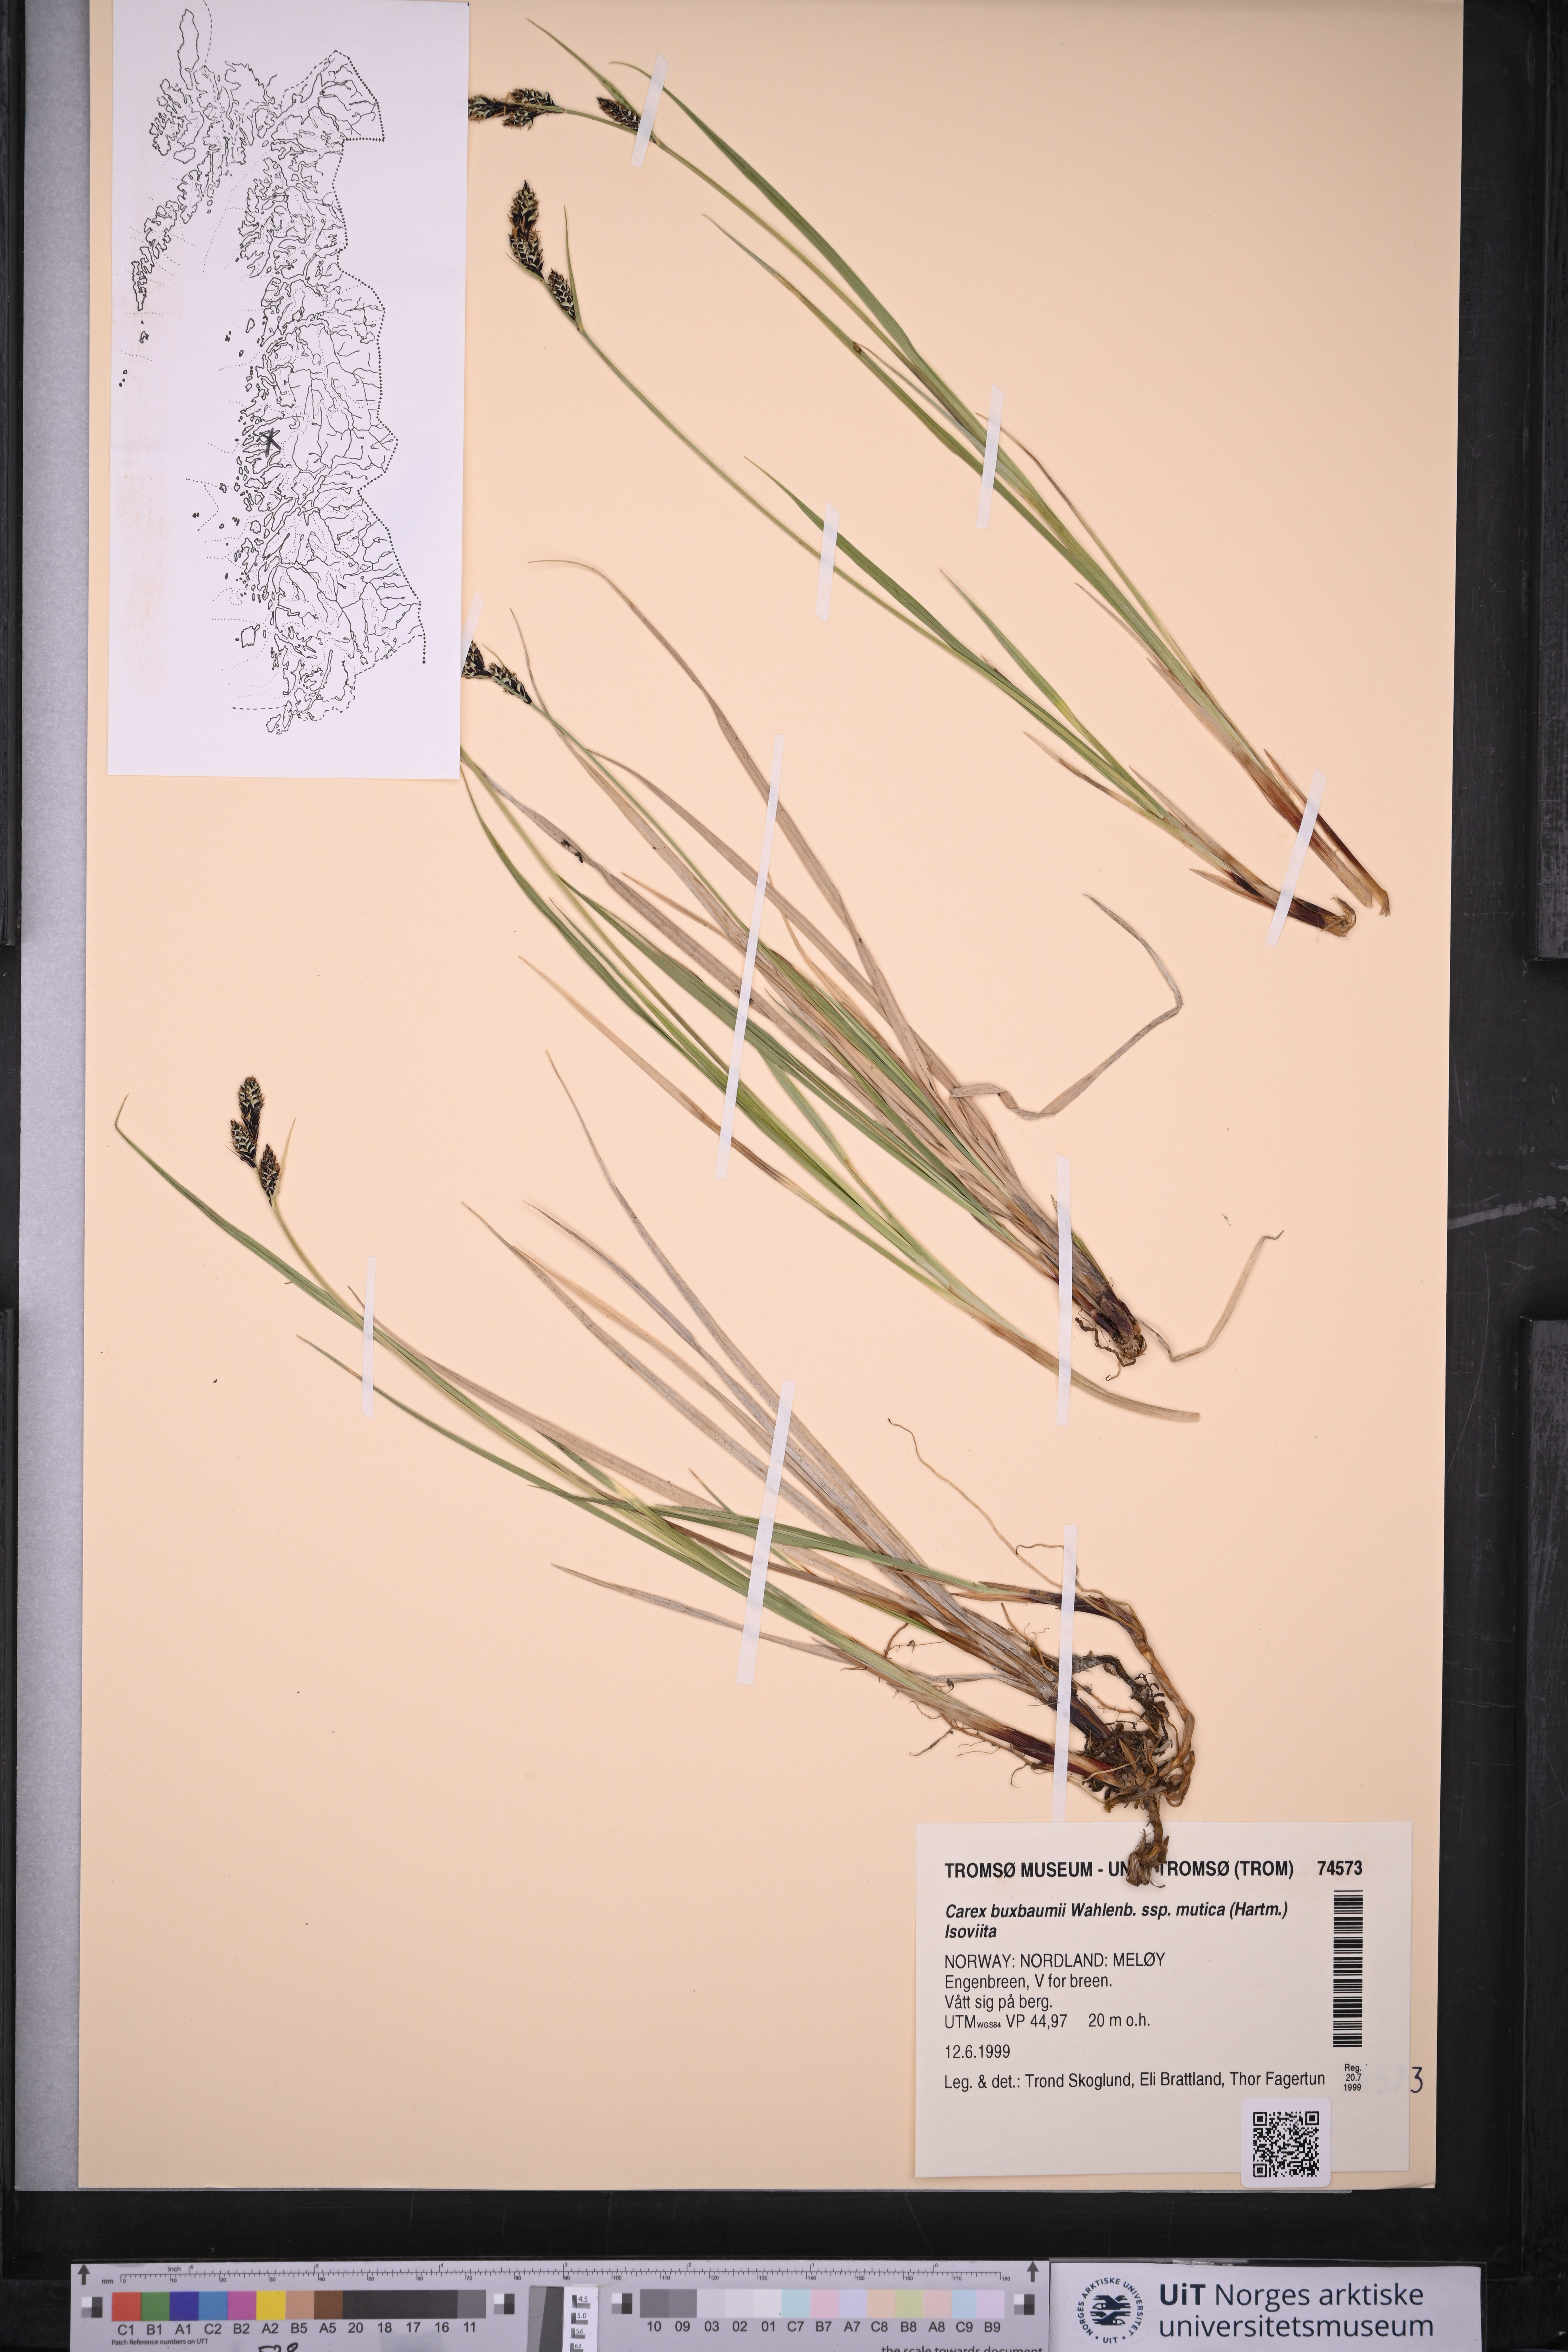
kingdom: Plantae
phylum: Tracheophyta
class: Liliopsida
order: Poales
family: Cyperaceae
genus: Carex
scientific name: Carex adelostoma
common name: Circumpolar sedge
